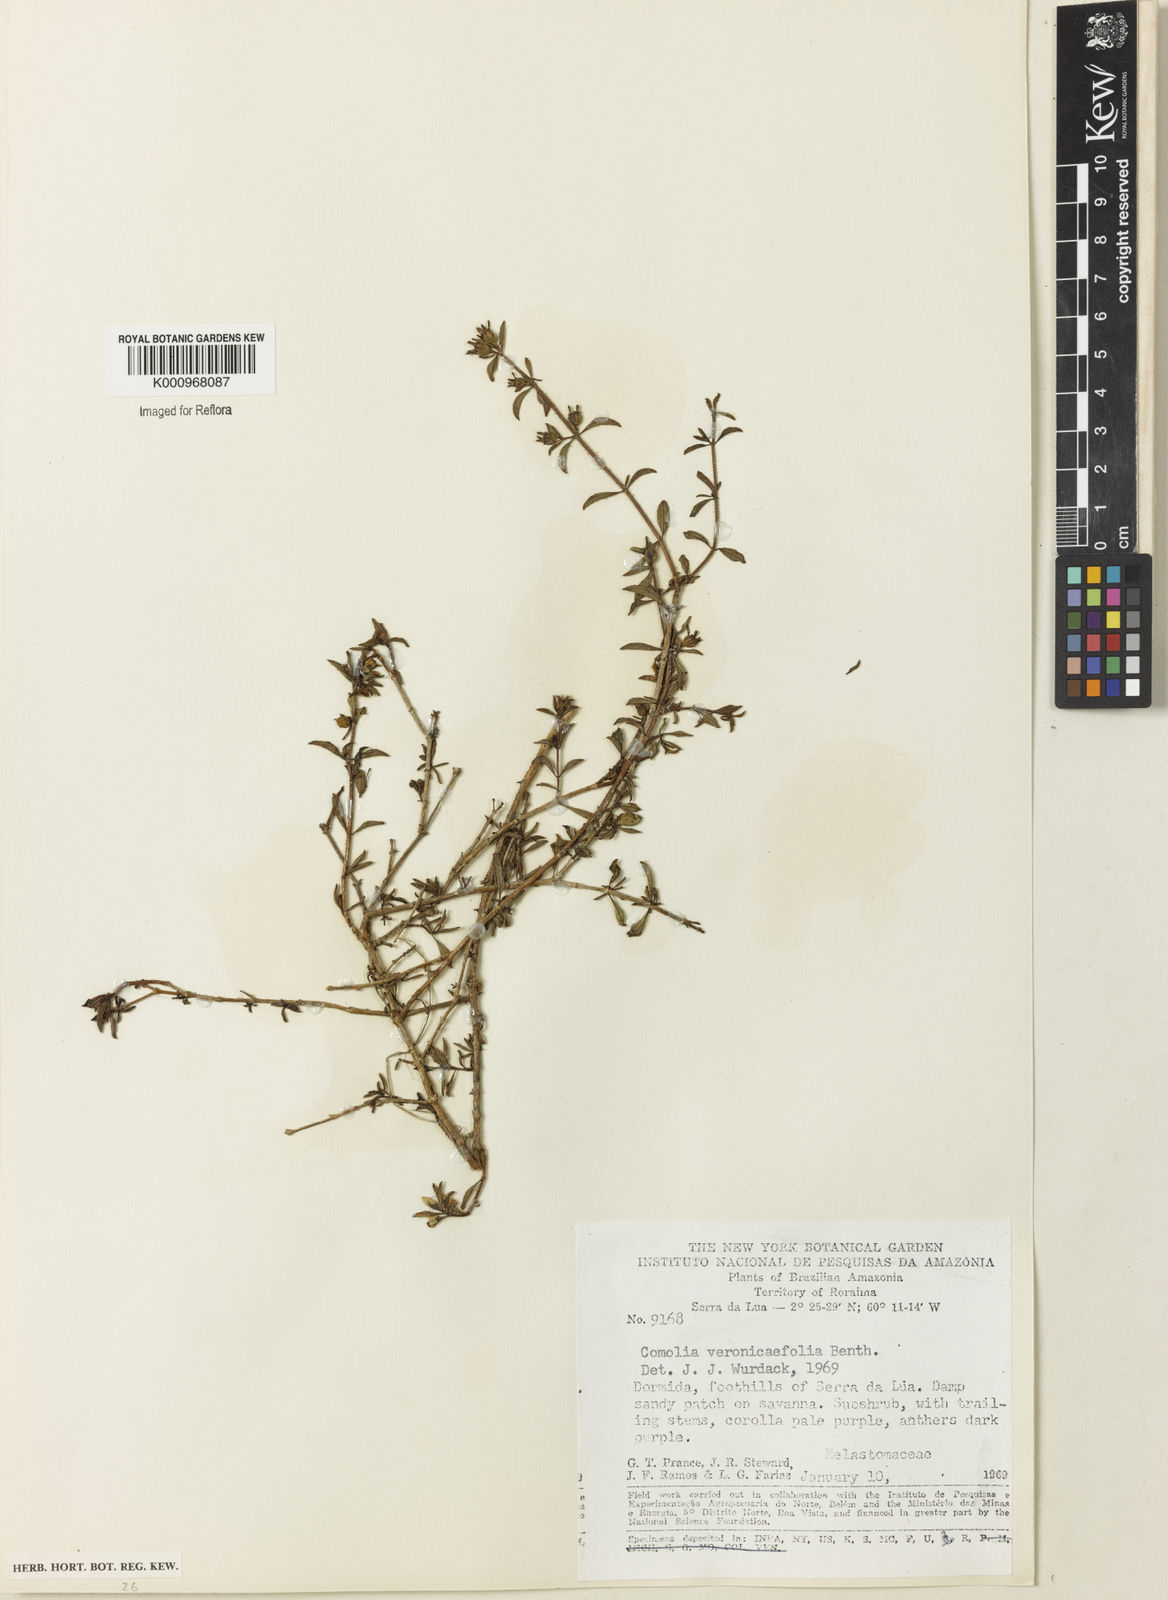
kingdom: Plantae
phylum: Tracheophyta
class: Magnoliopsida
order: Myrtales
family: Melastomataceae
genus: Comolia
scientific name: Comolia villosa
